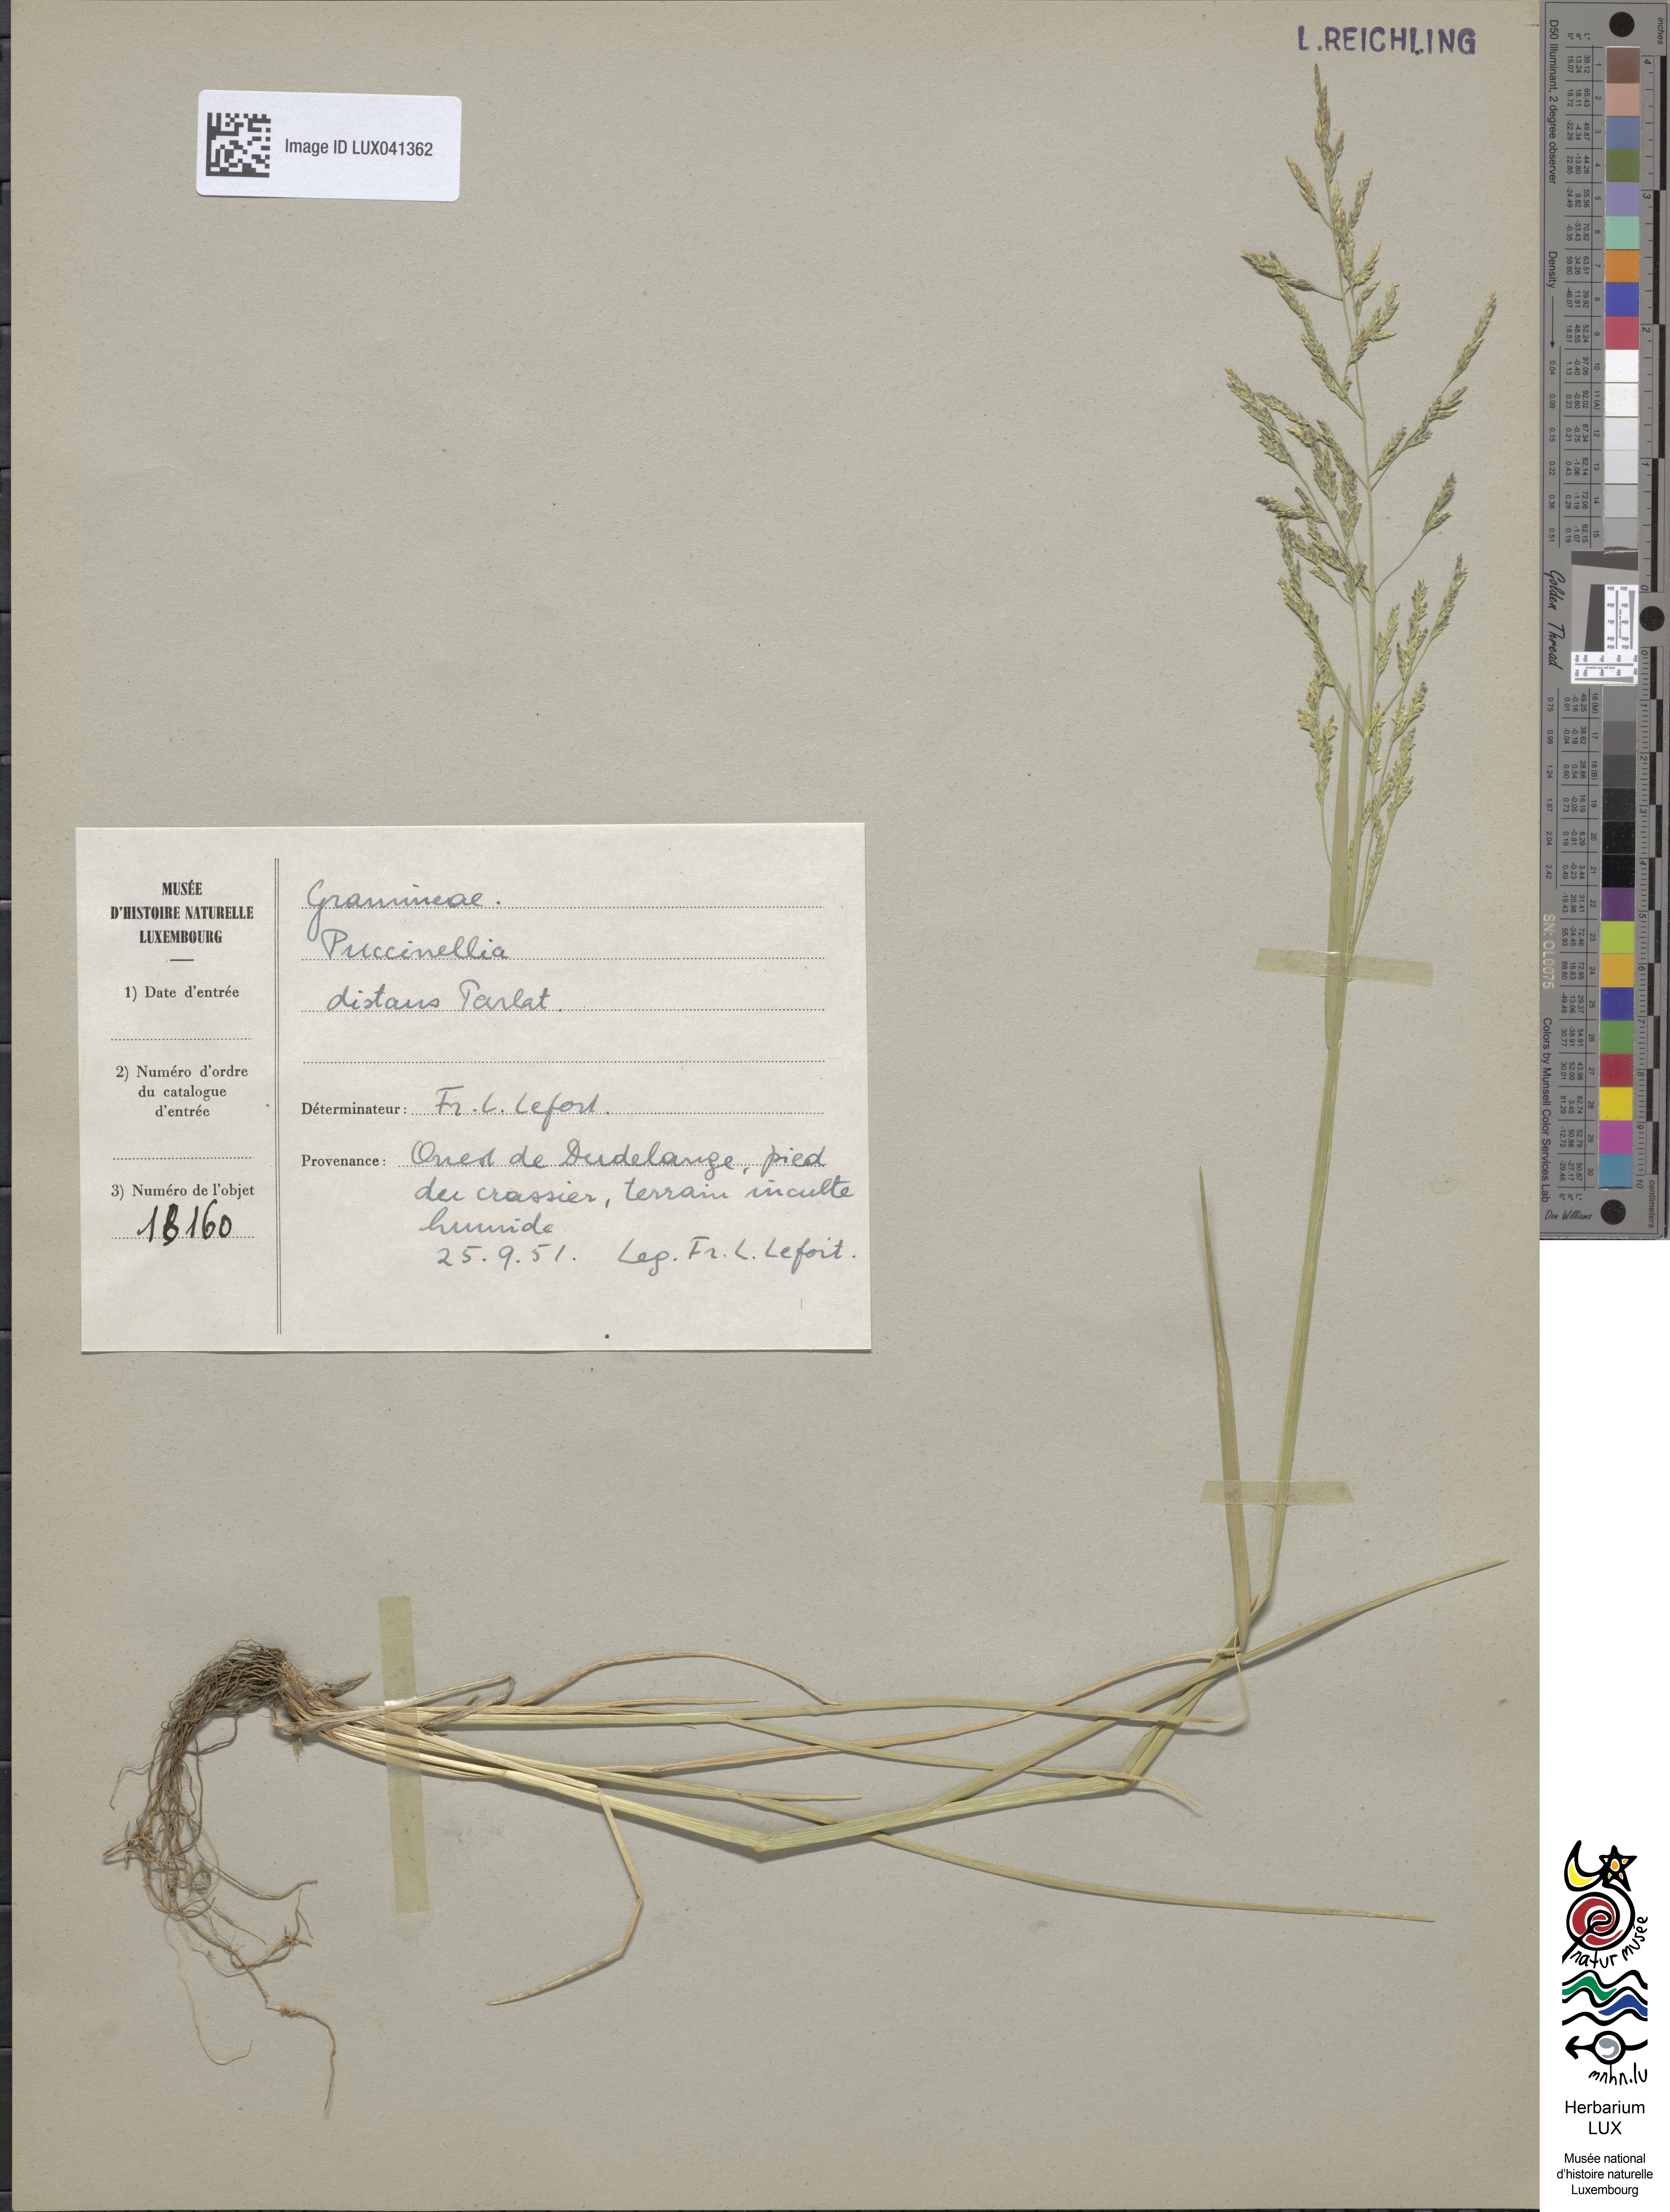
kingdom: Plantae
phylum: Tracheophyta
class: Liliopsida
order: Poales
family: Poaceae
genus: Puccinellia
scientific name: Puccinellia distans
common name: Weeping alkaligrass
